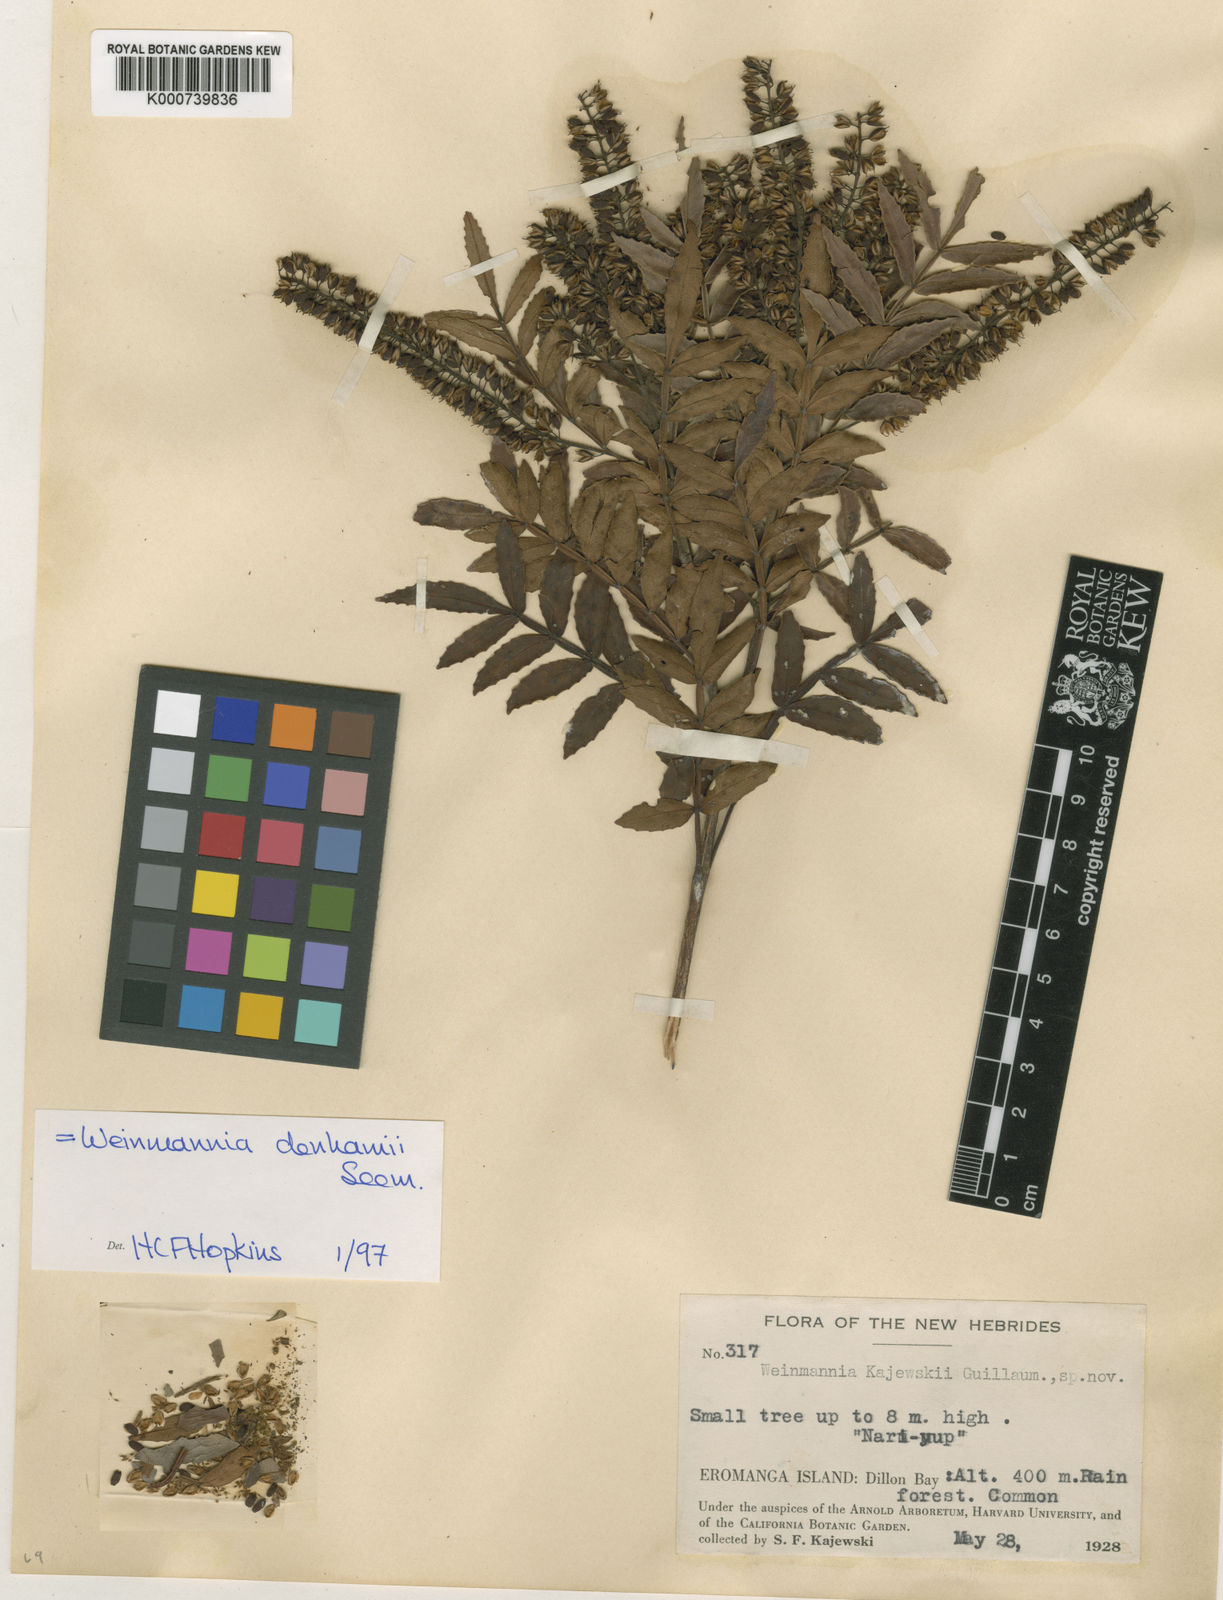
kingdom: Plantae
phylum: Tracheophyta
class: Magnoliopsida
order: Oxalidales
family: Cunoniaceae
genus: Pterophylla
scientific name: Pterophylla denhamii
